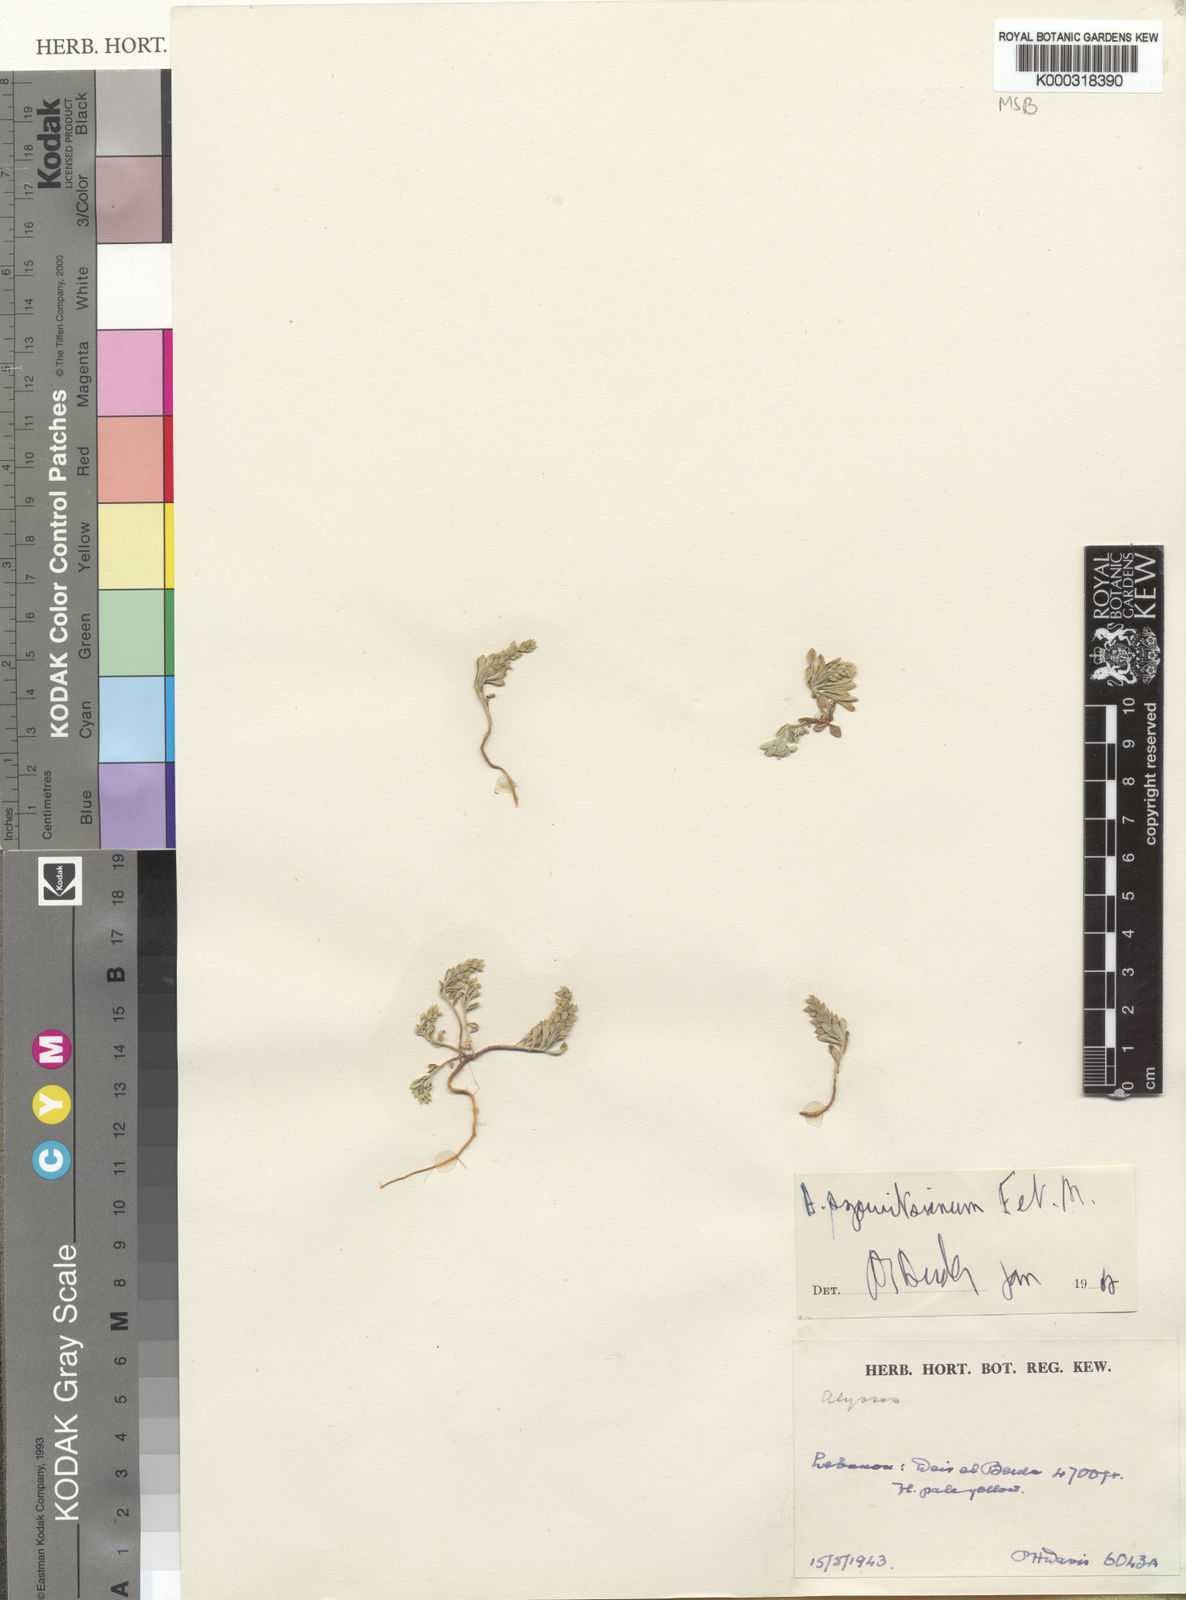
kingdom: Plantae
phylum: Tracheophyta
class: Magnoliopsida
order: Brassicales
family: Brassicaceae
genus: Alyssum
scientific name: Alyssum
